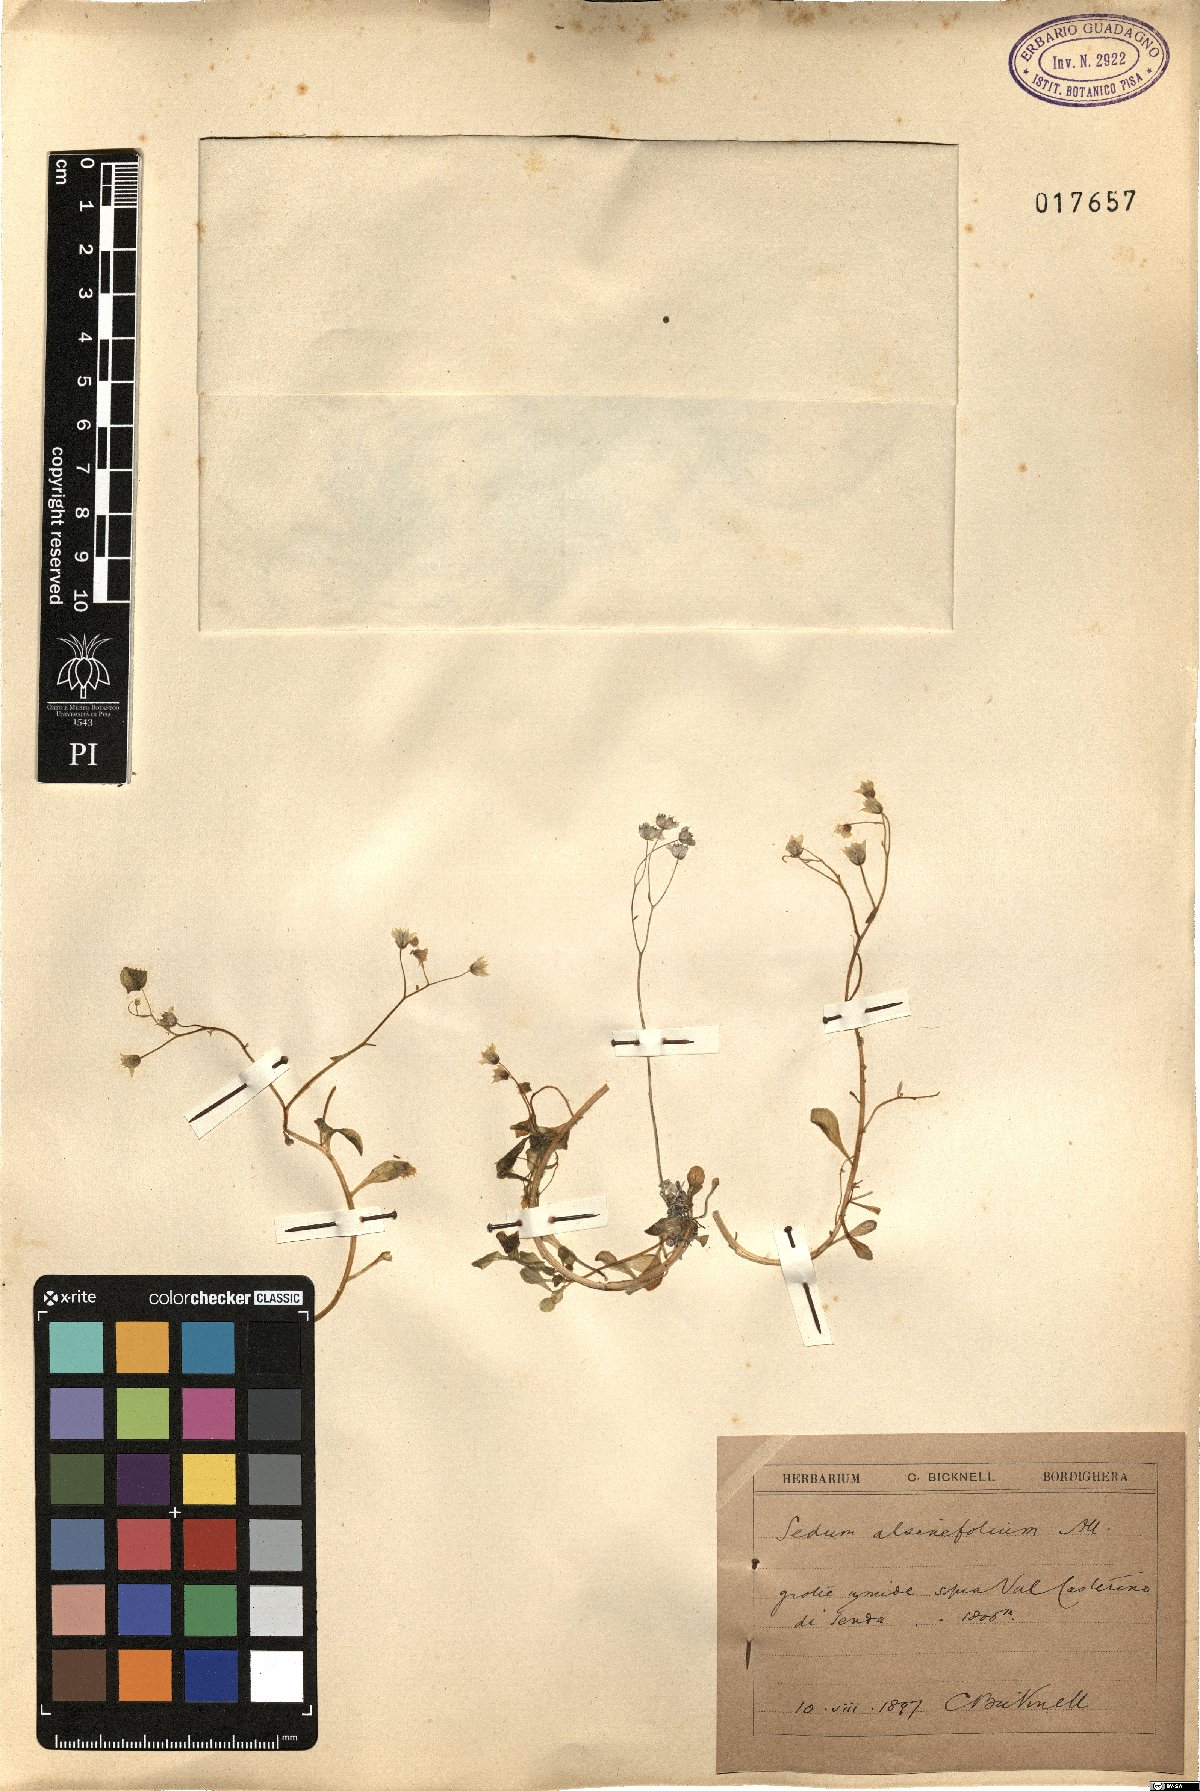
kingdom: Plantae
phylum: Tracheophyta
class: Magnoliopsida
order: Saxifragales
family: Crassulaceae
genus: Sedum
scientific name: Sedum alsinifolium
